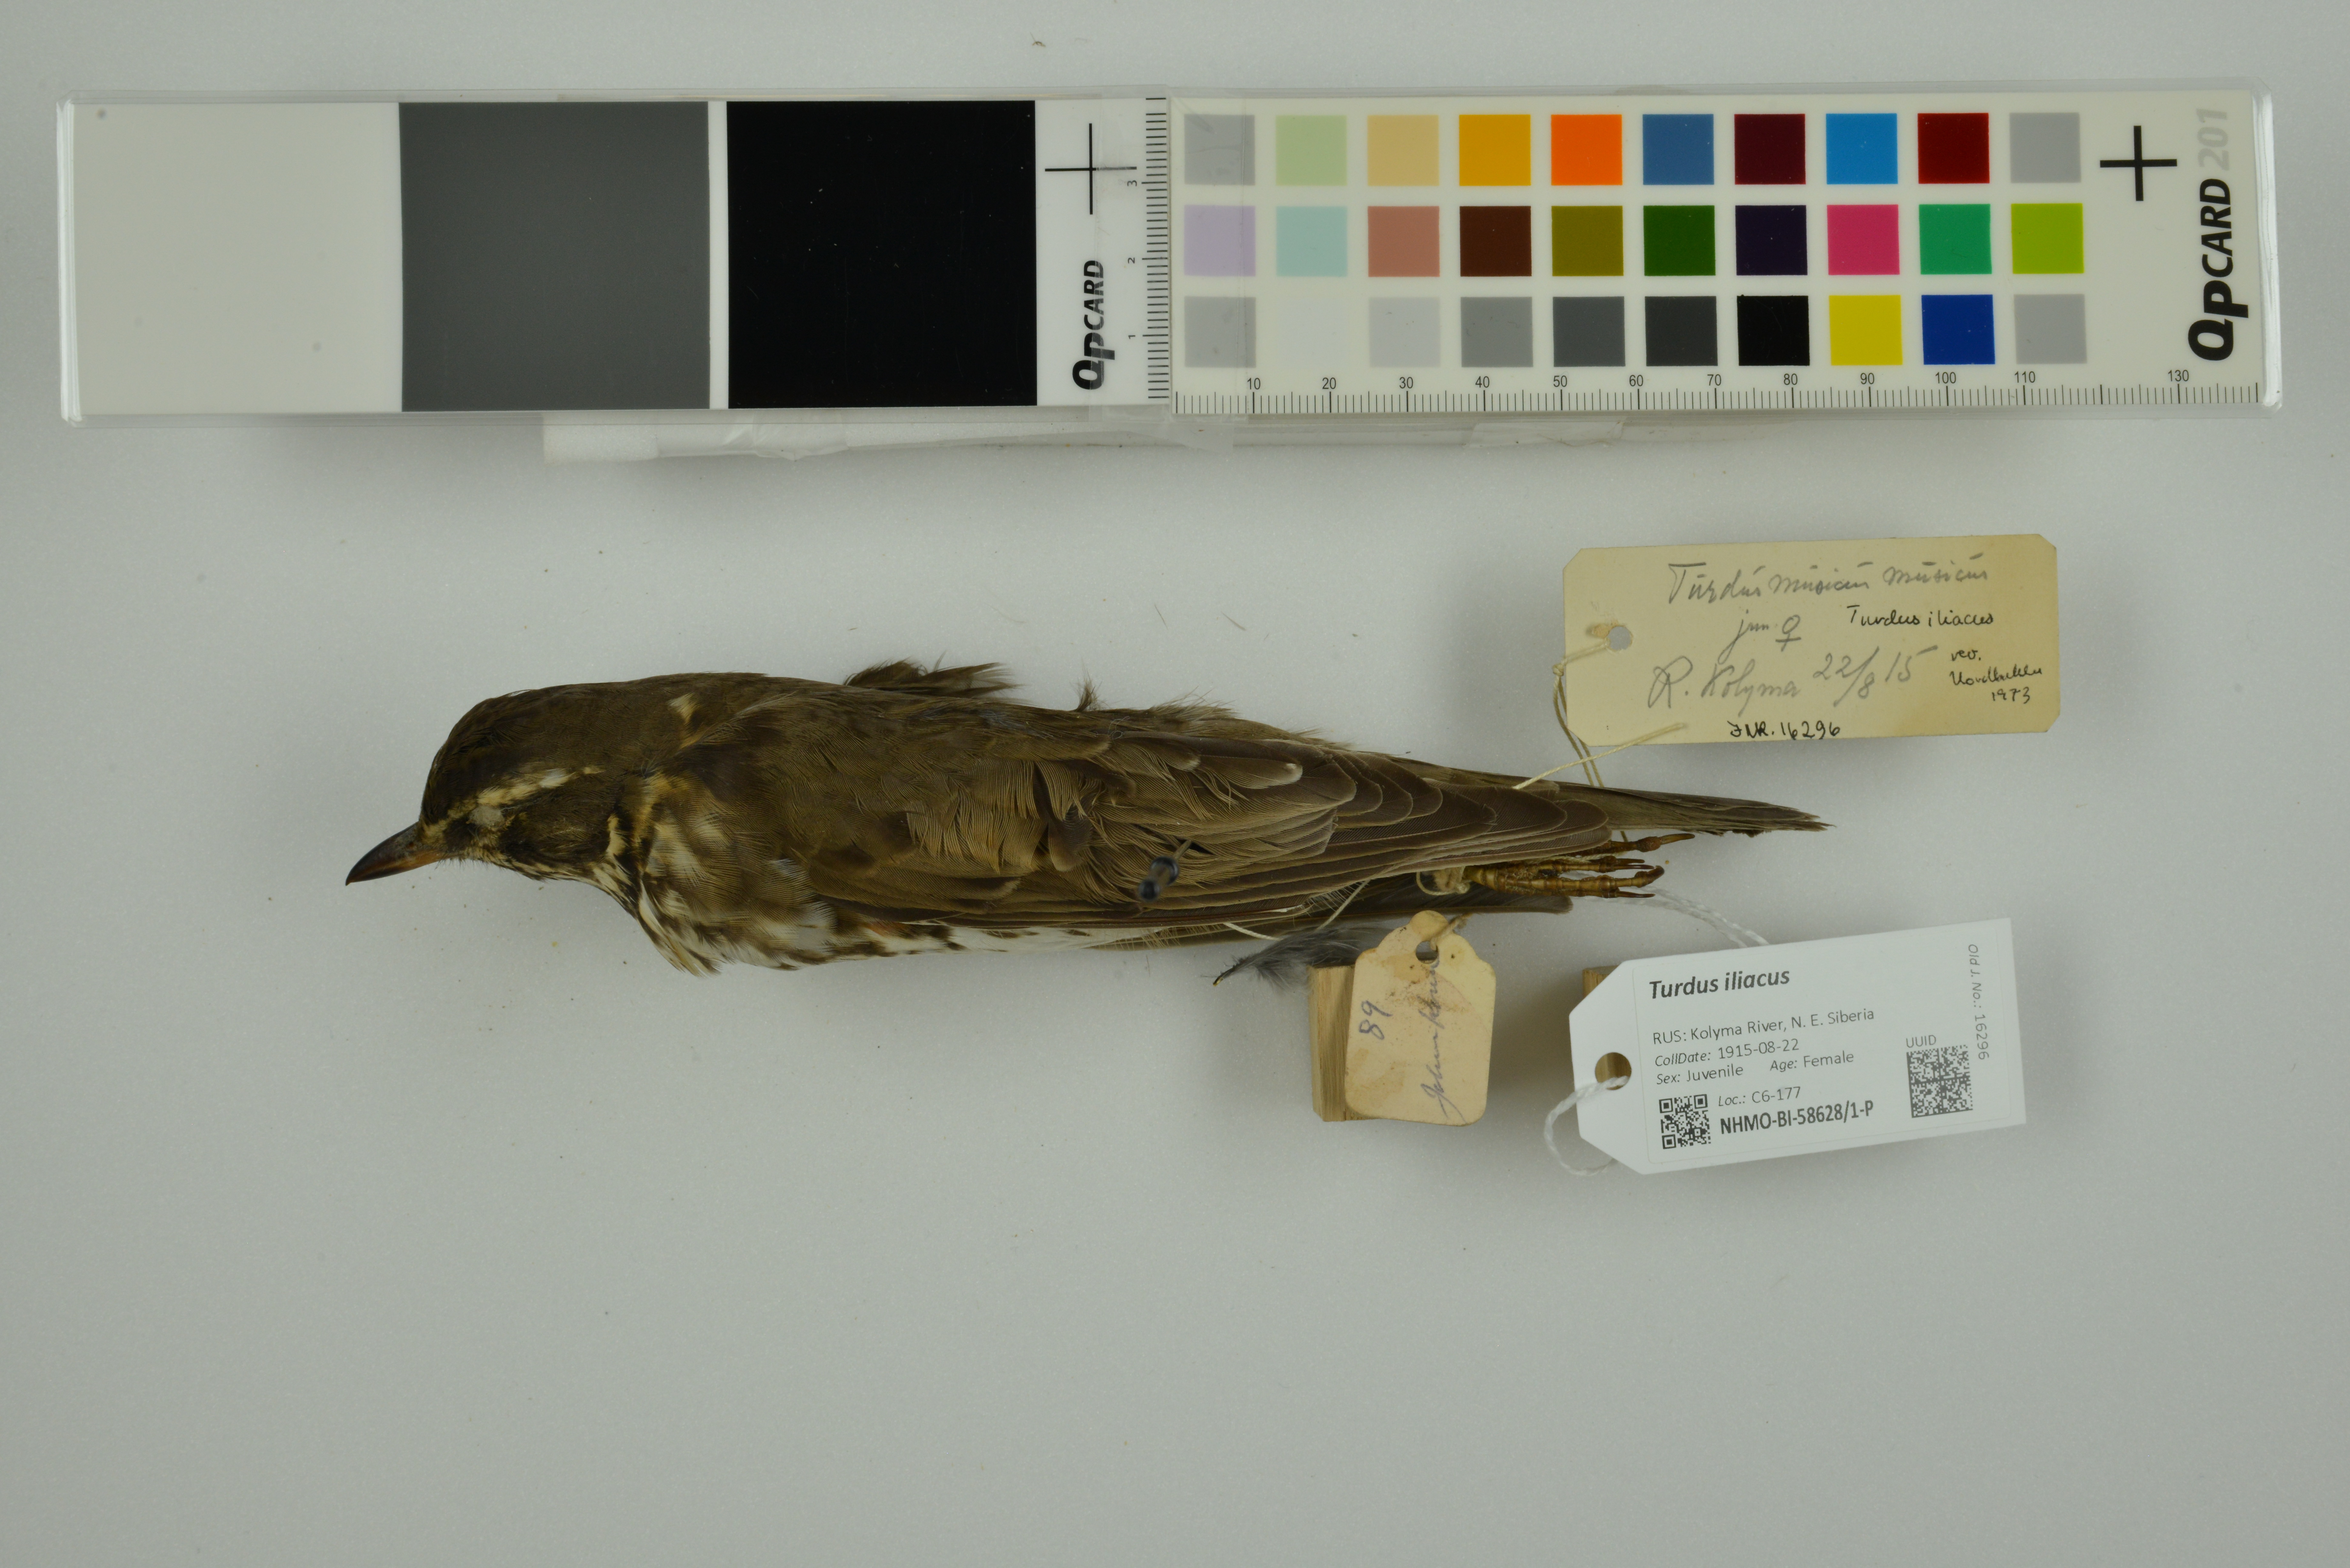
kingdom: Animalia
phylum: Chordata
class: Aves
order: Passeriformes
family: Turdidae
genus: Turdus
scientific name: Turdus iliacus
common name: Redwing
